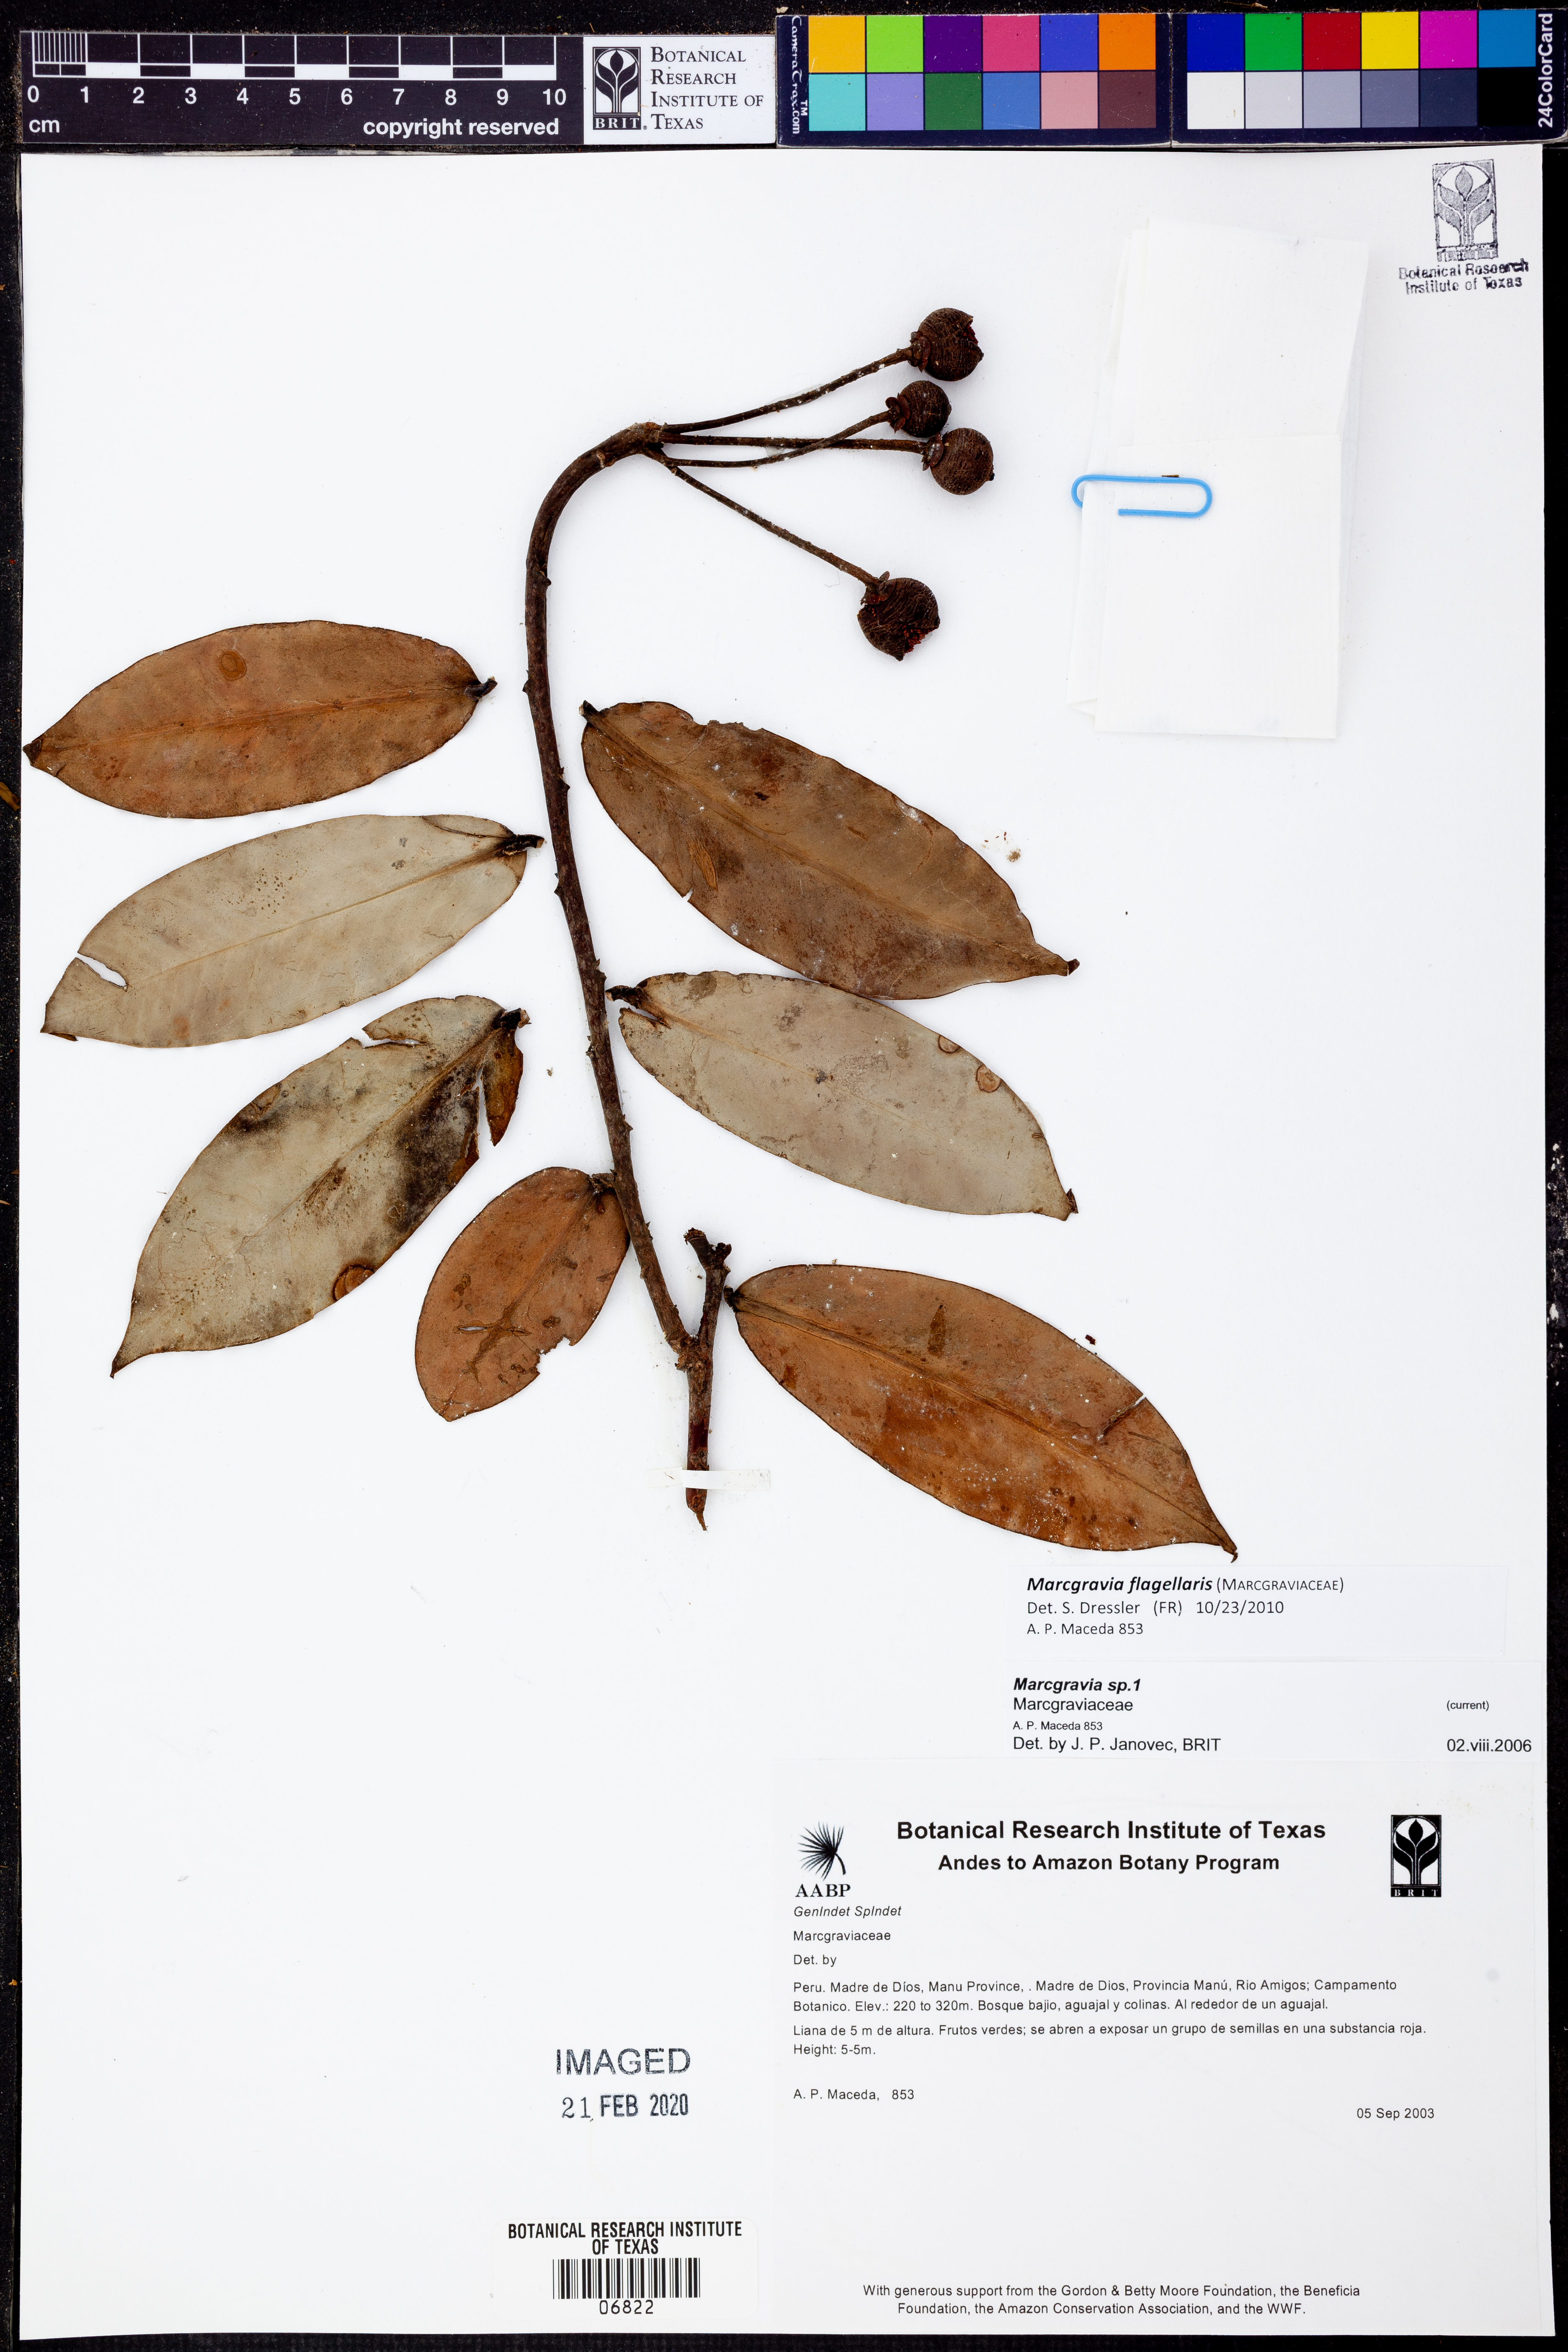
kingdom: Plantae
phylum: Tracheophyta
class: Magnoliopsida
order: Ericales
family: Marcgraviaceae
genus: Marcgravia
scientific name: Marcgravia
